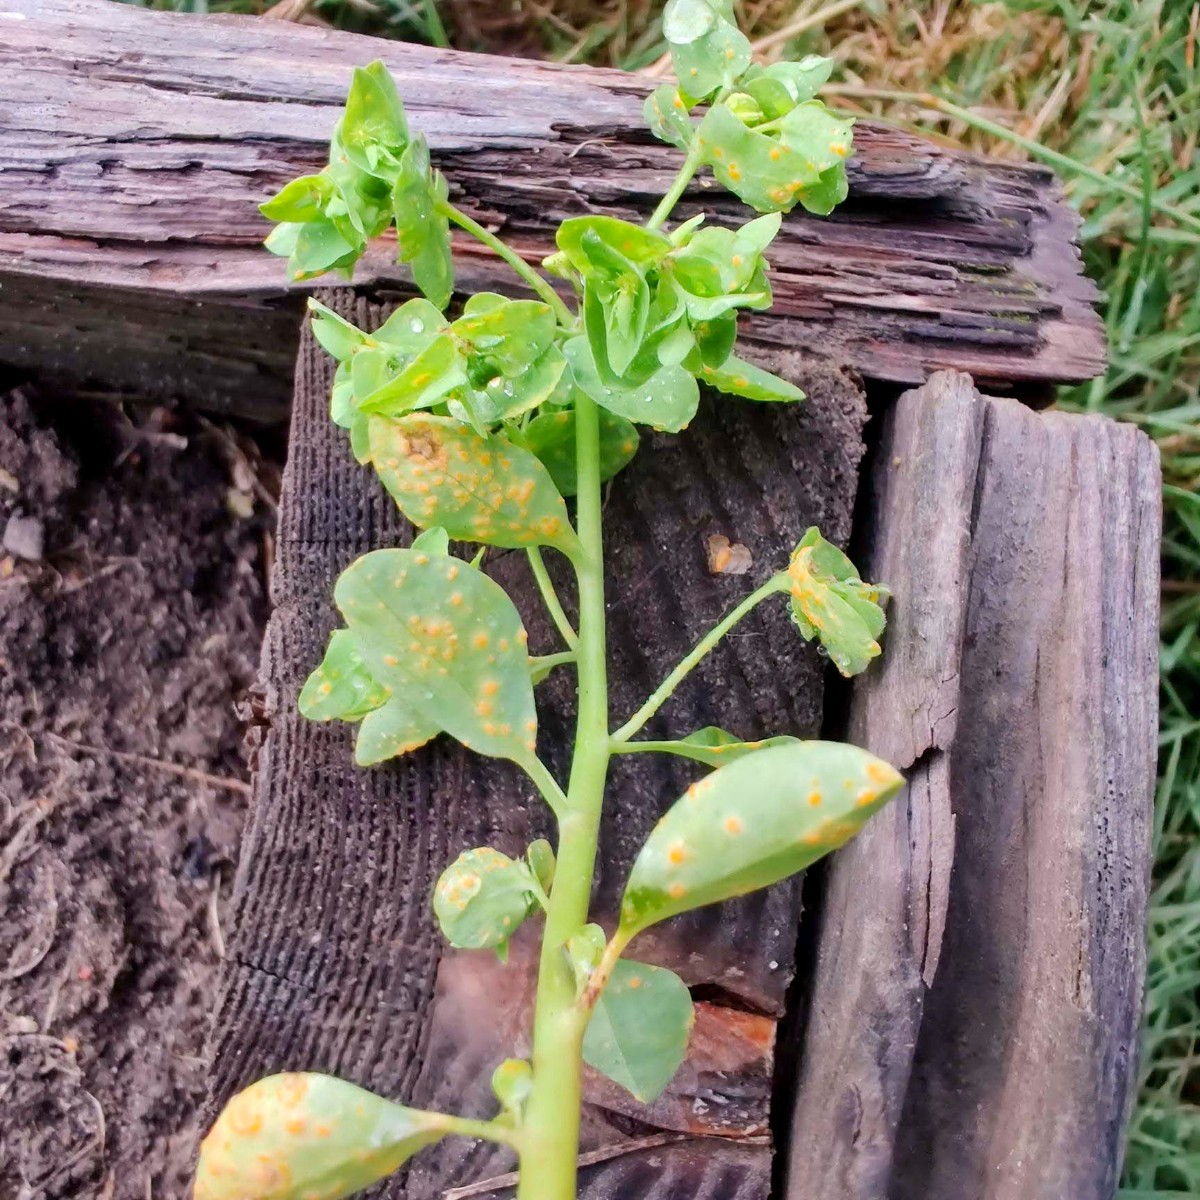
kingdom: Fungi
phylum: Basidiomycota
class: Pucciniomycetes
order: Pucciniales
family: Melampsoraceae
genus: Melampsora
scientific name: Melampsora euphorbiae
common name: vortemælk-skorperust
